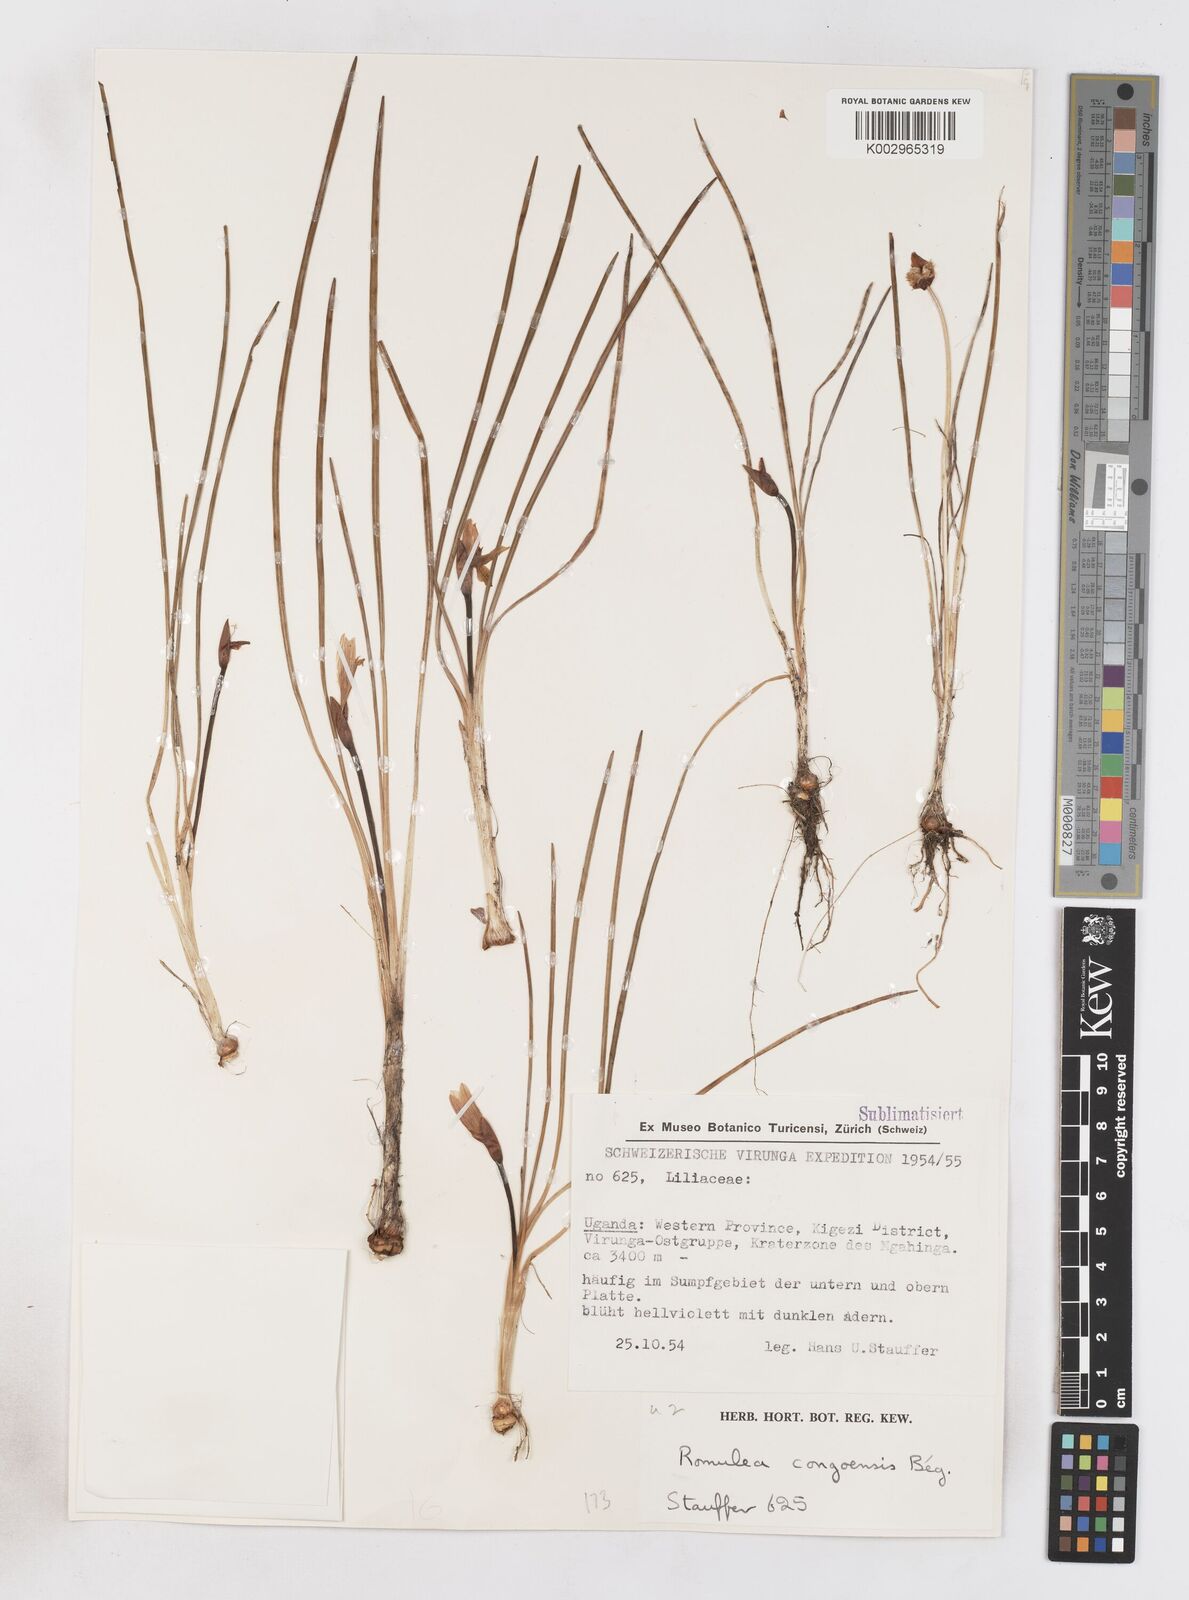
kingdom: Plantae
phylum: Tracheophyta
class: Liliopsida
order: Asparagales
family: Iridaceae
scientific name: Iridaceae
